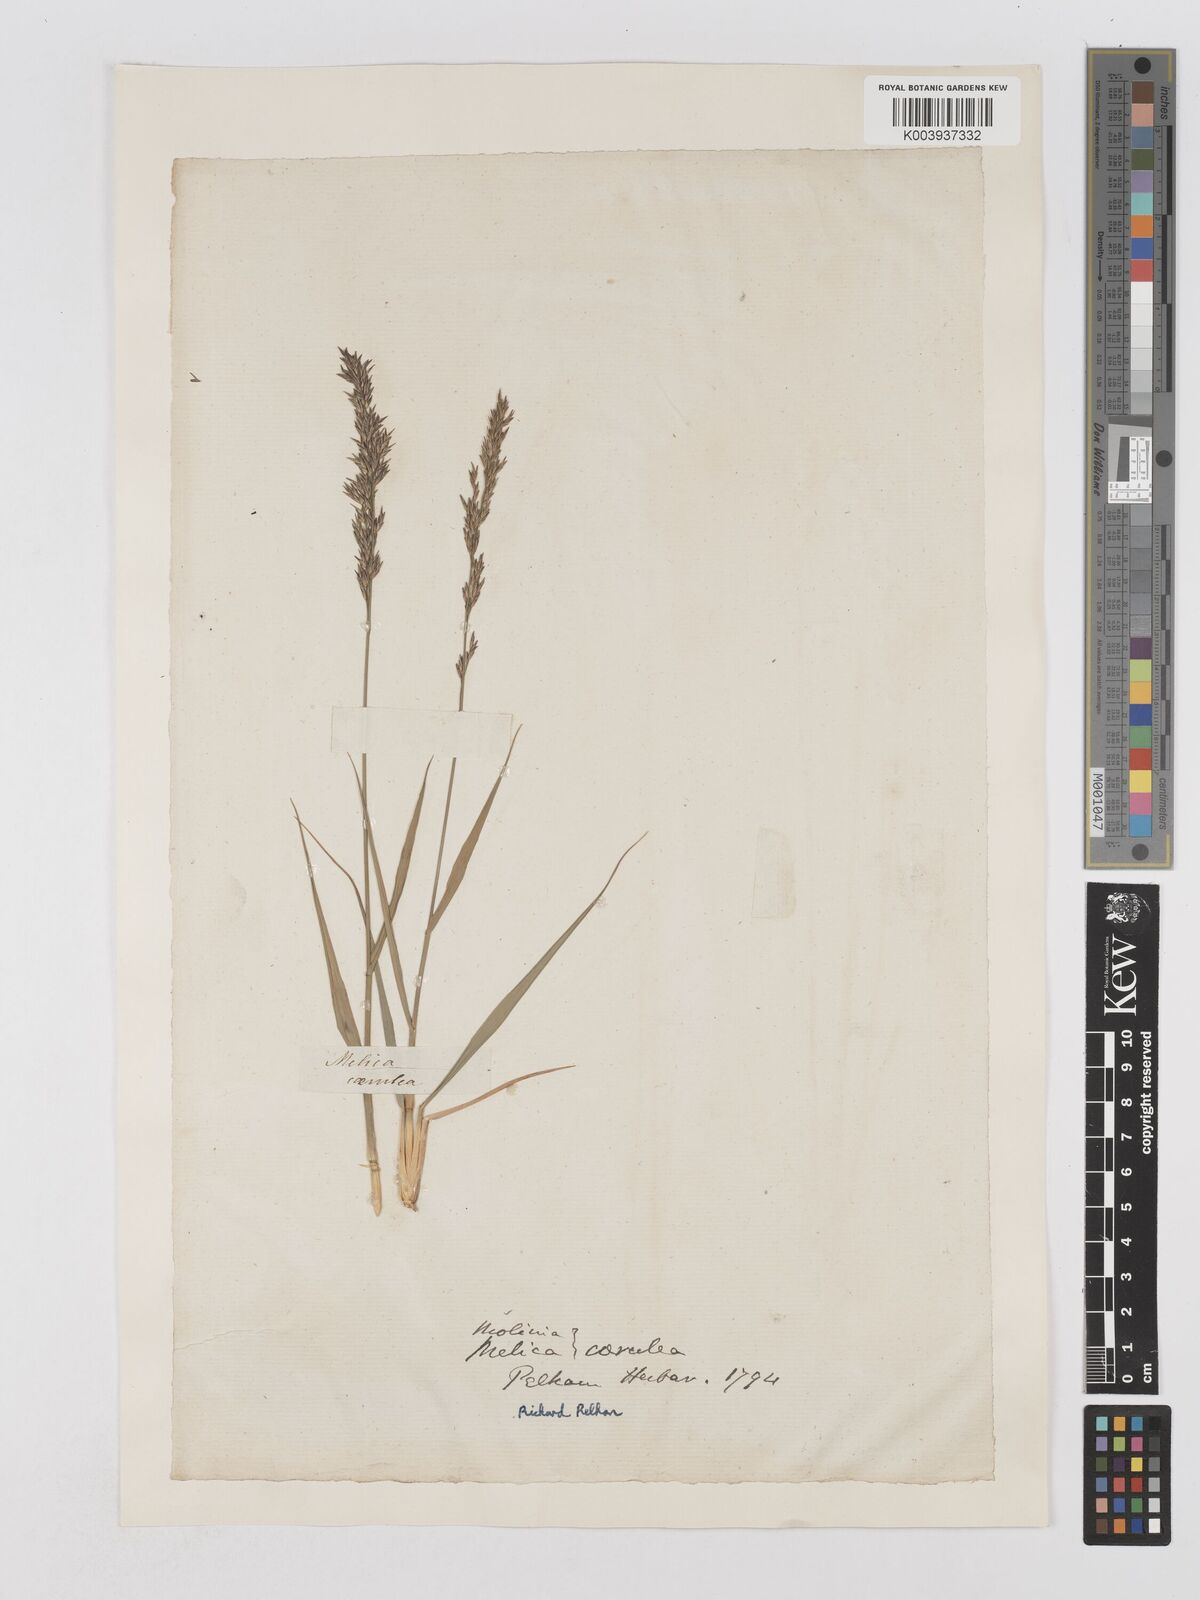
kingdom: Plantae
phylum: Tracheophyta
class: Liliopsida
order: Poales
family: Poaceae
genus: Molinia
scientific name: Molinia caerulea
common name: Purple moor-grass
